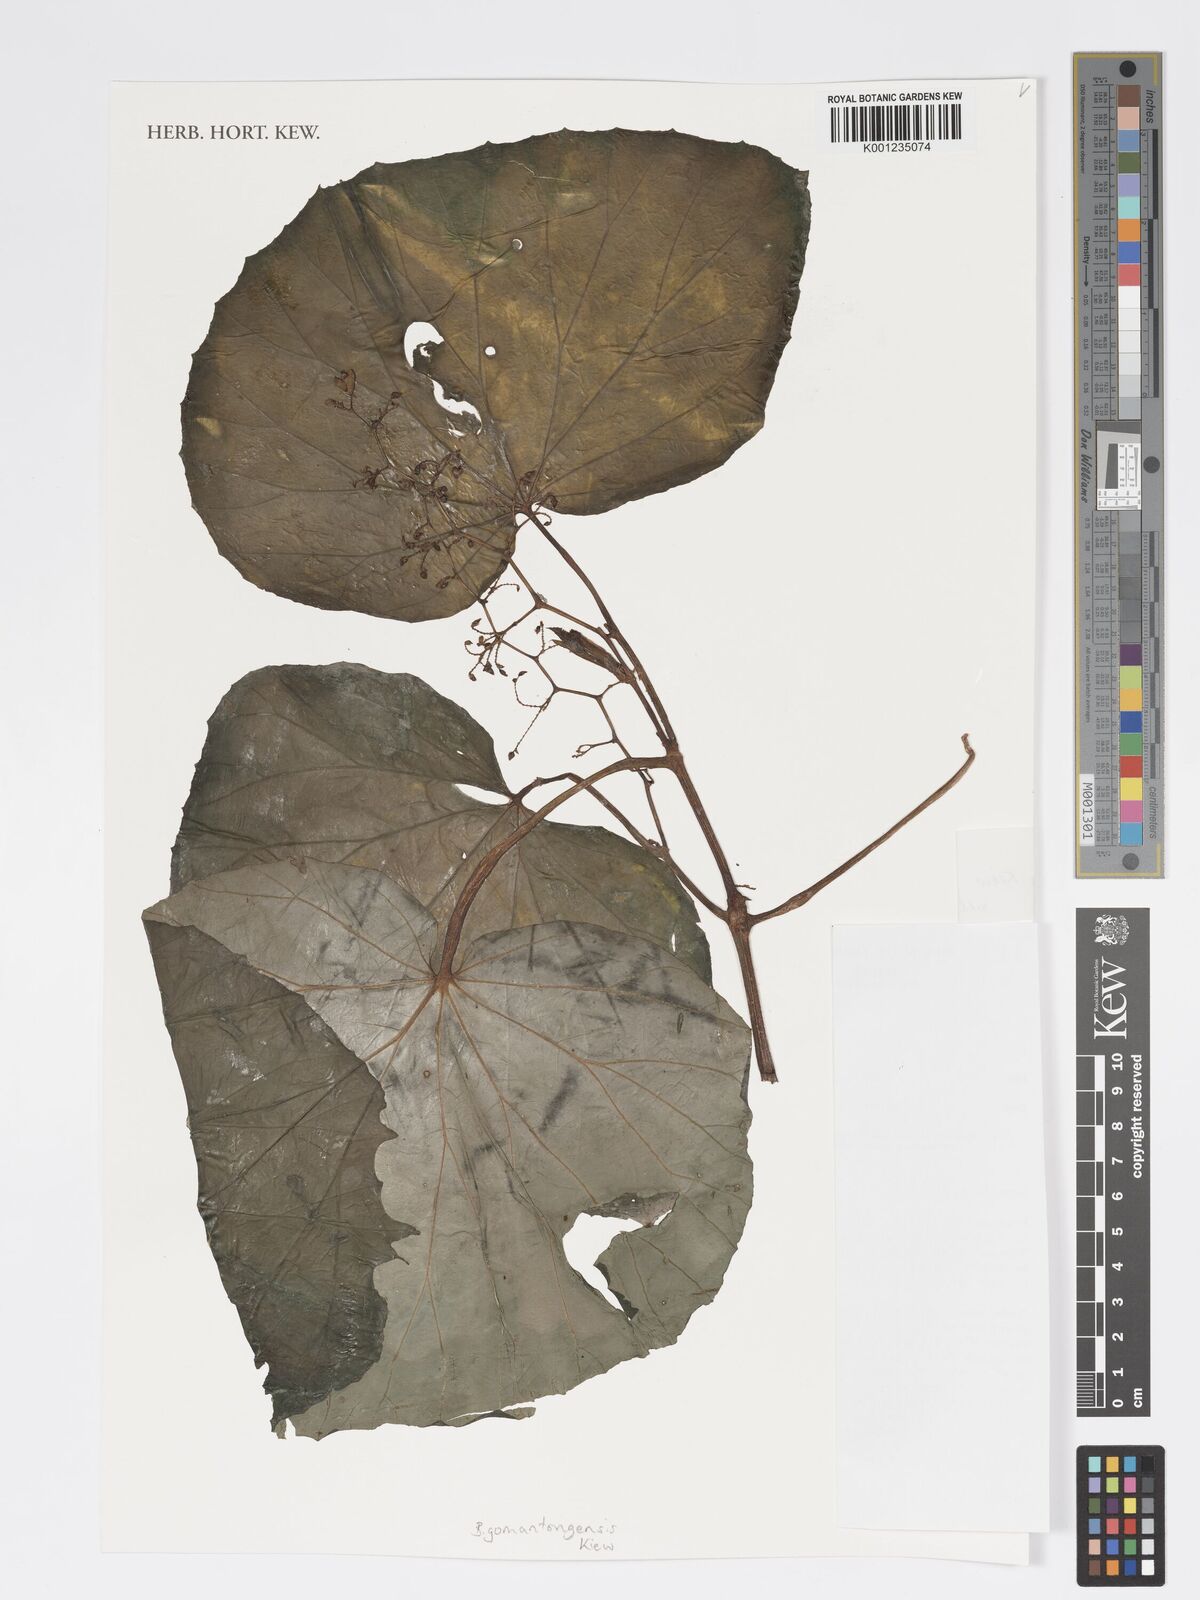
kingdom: Plantae
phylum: Tracheophyta
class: Magnoliopsida
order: Cucurbitales
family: Begoniaceae
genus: Begonia
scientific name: Begonia gomantongensis
